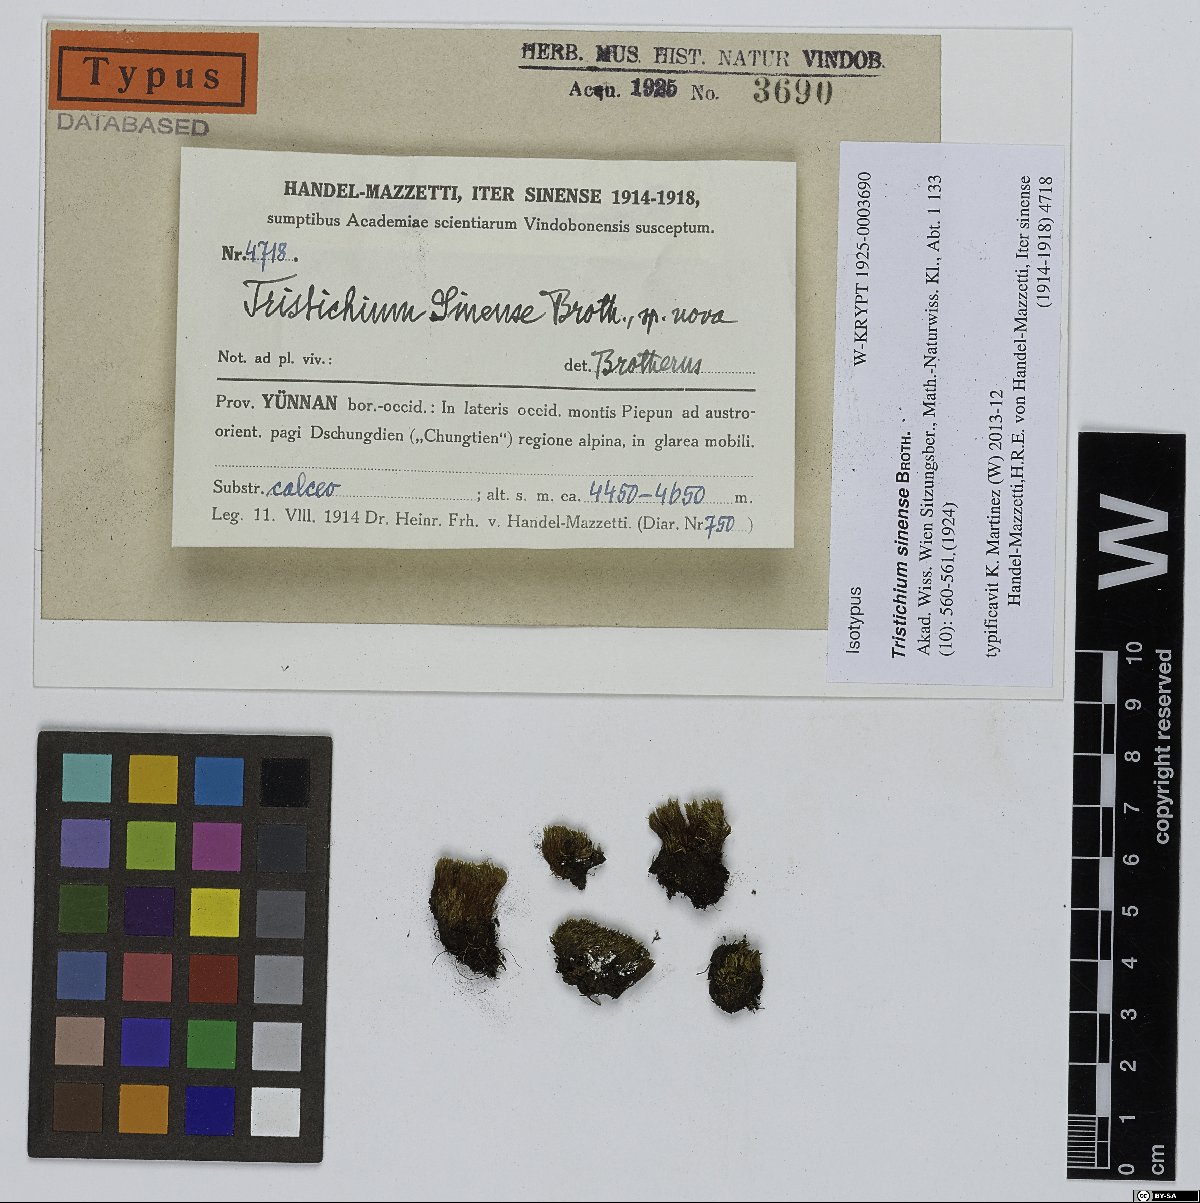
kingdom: Plantae
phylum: Bryophyta
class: Bryopsida
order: Dicranales
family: Ditrichaceae
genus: Tristichium
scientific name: Tristichium sinense
